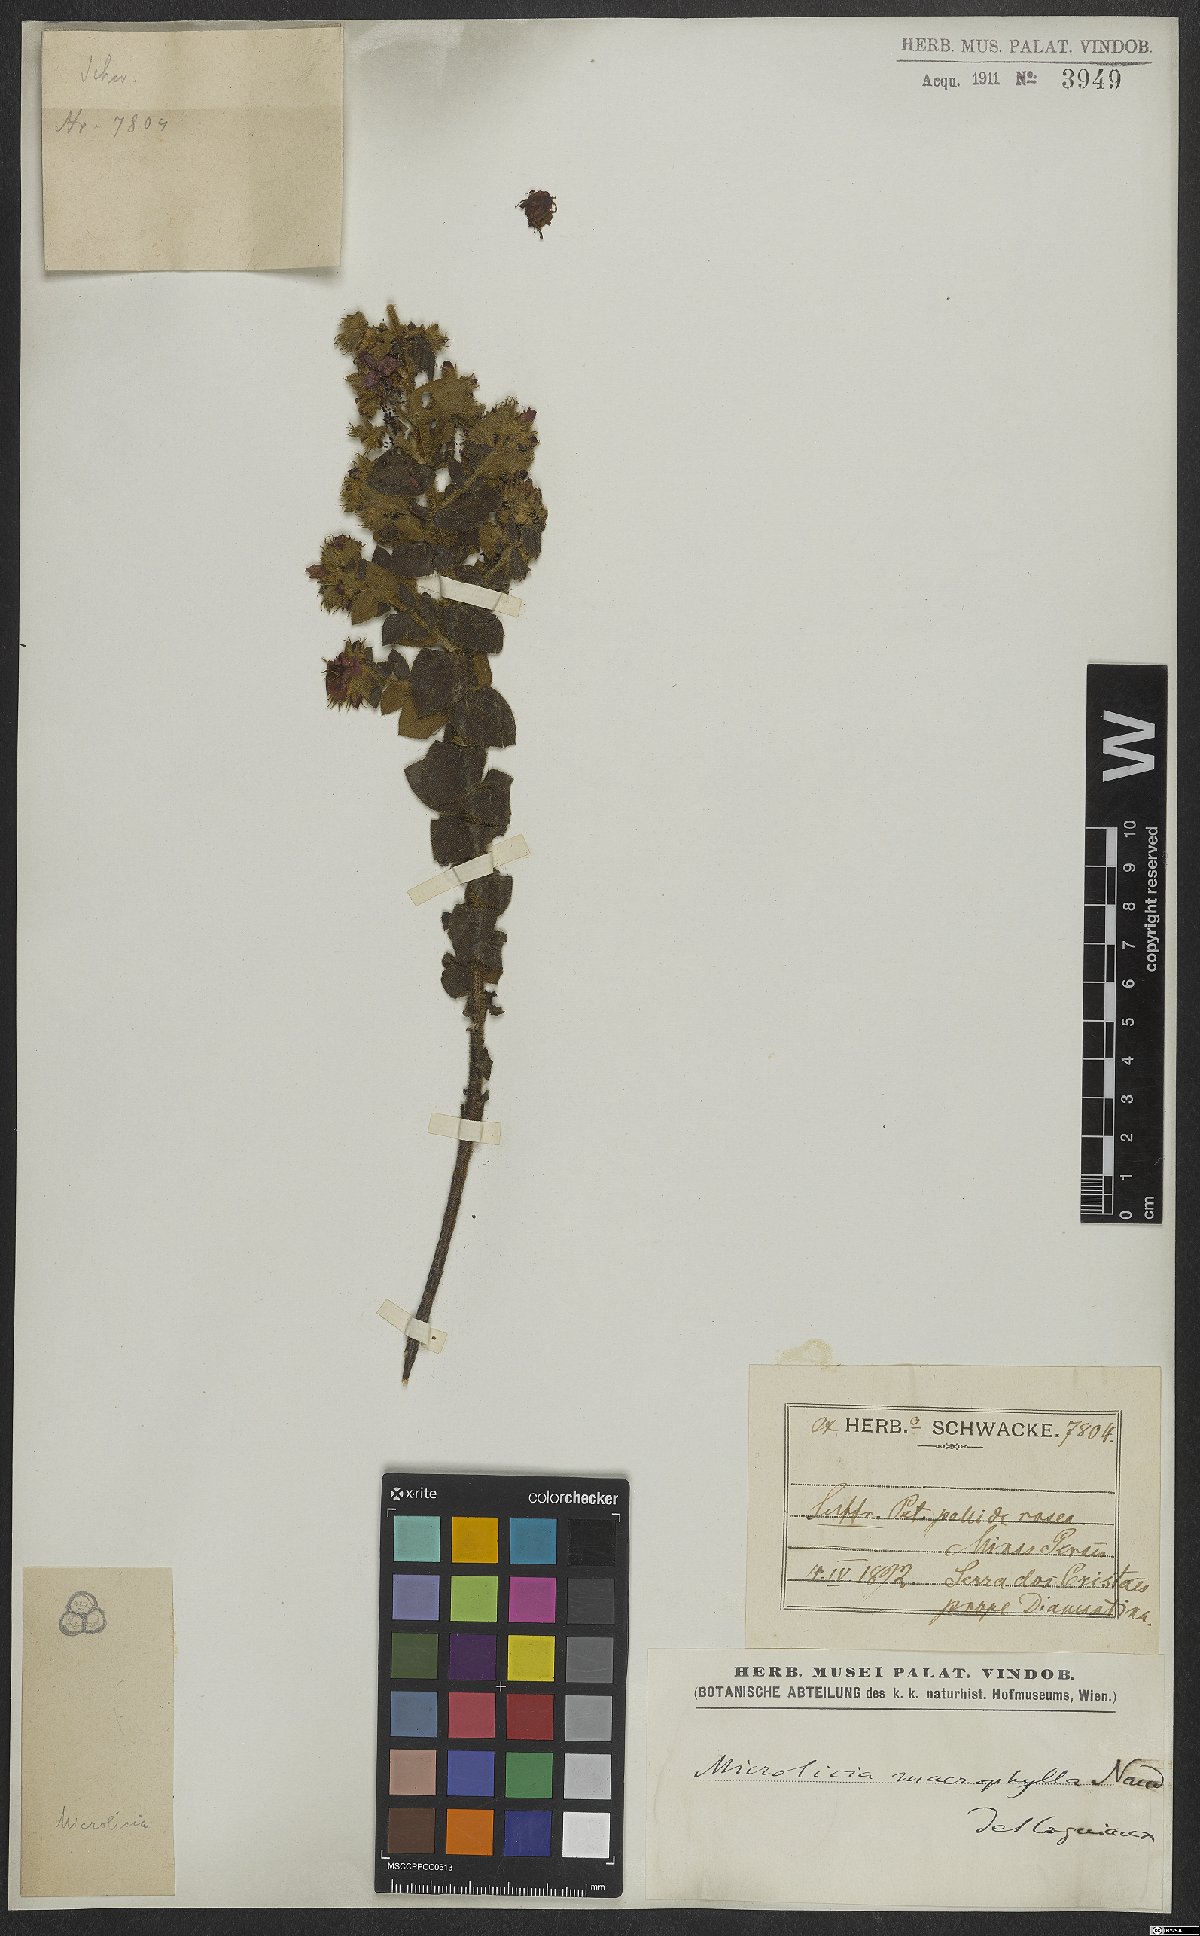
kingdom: Plantae
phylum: Tracheophyta
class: Magnoliopsida
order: Myrtales
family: Melastomataceae
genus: Microlicia
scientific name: Microlicia macrophylla
